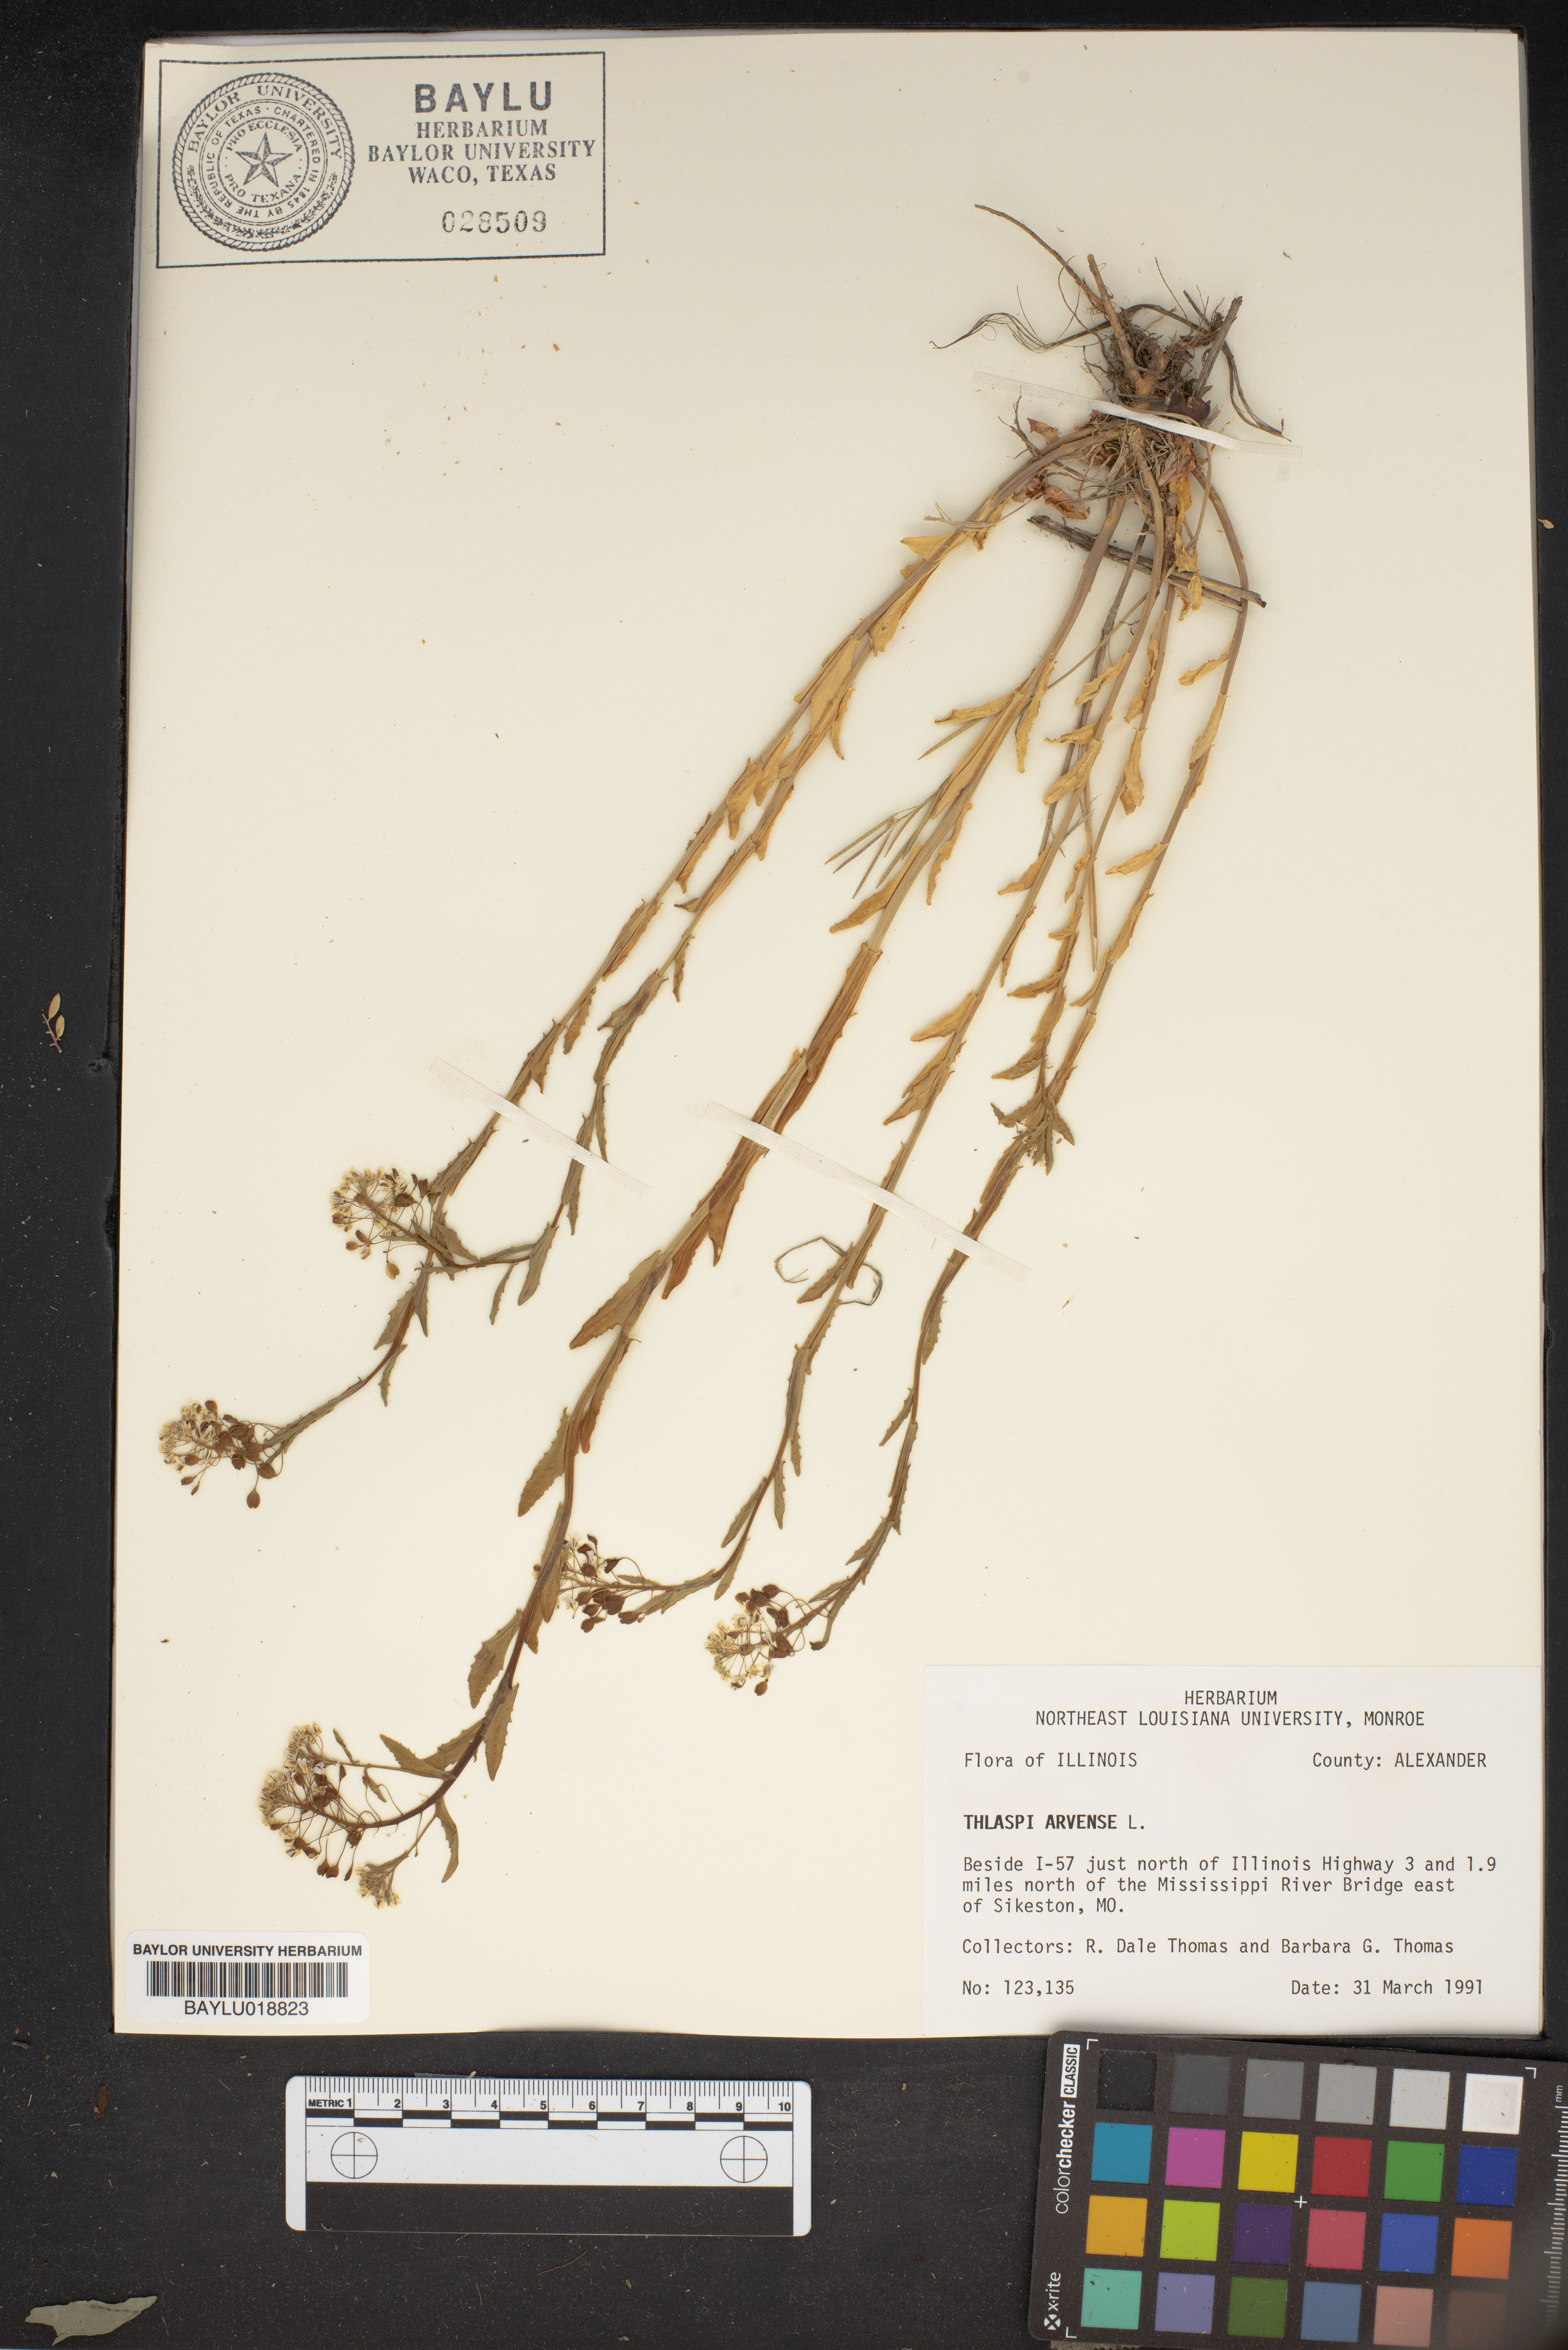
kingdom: Plantae
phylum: Tracheophyta
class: Magnoliopsida
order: Brassicales
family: Brassicaceae
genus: Thlaspi
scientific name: Thlaspi arvense
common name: Field pennycress
